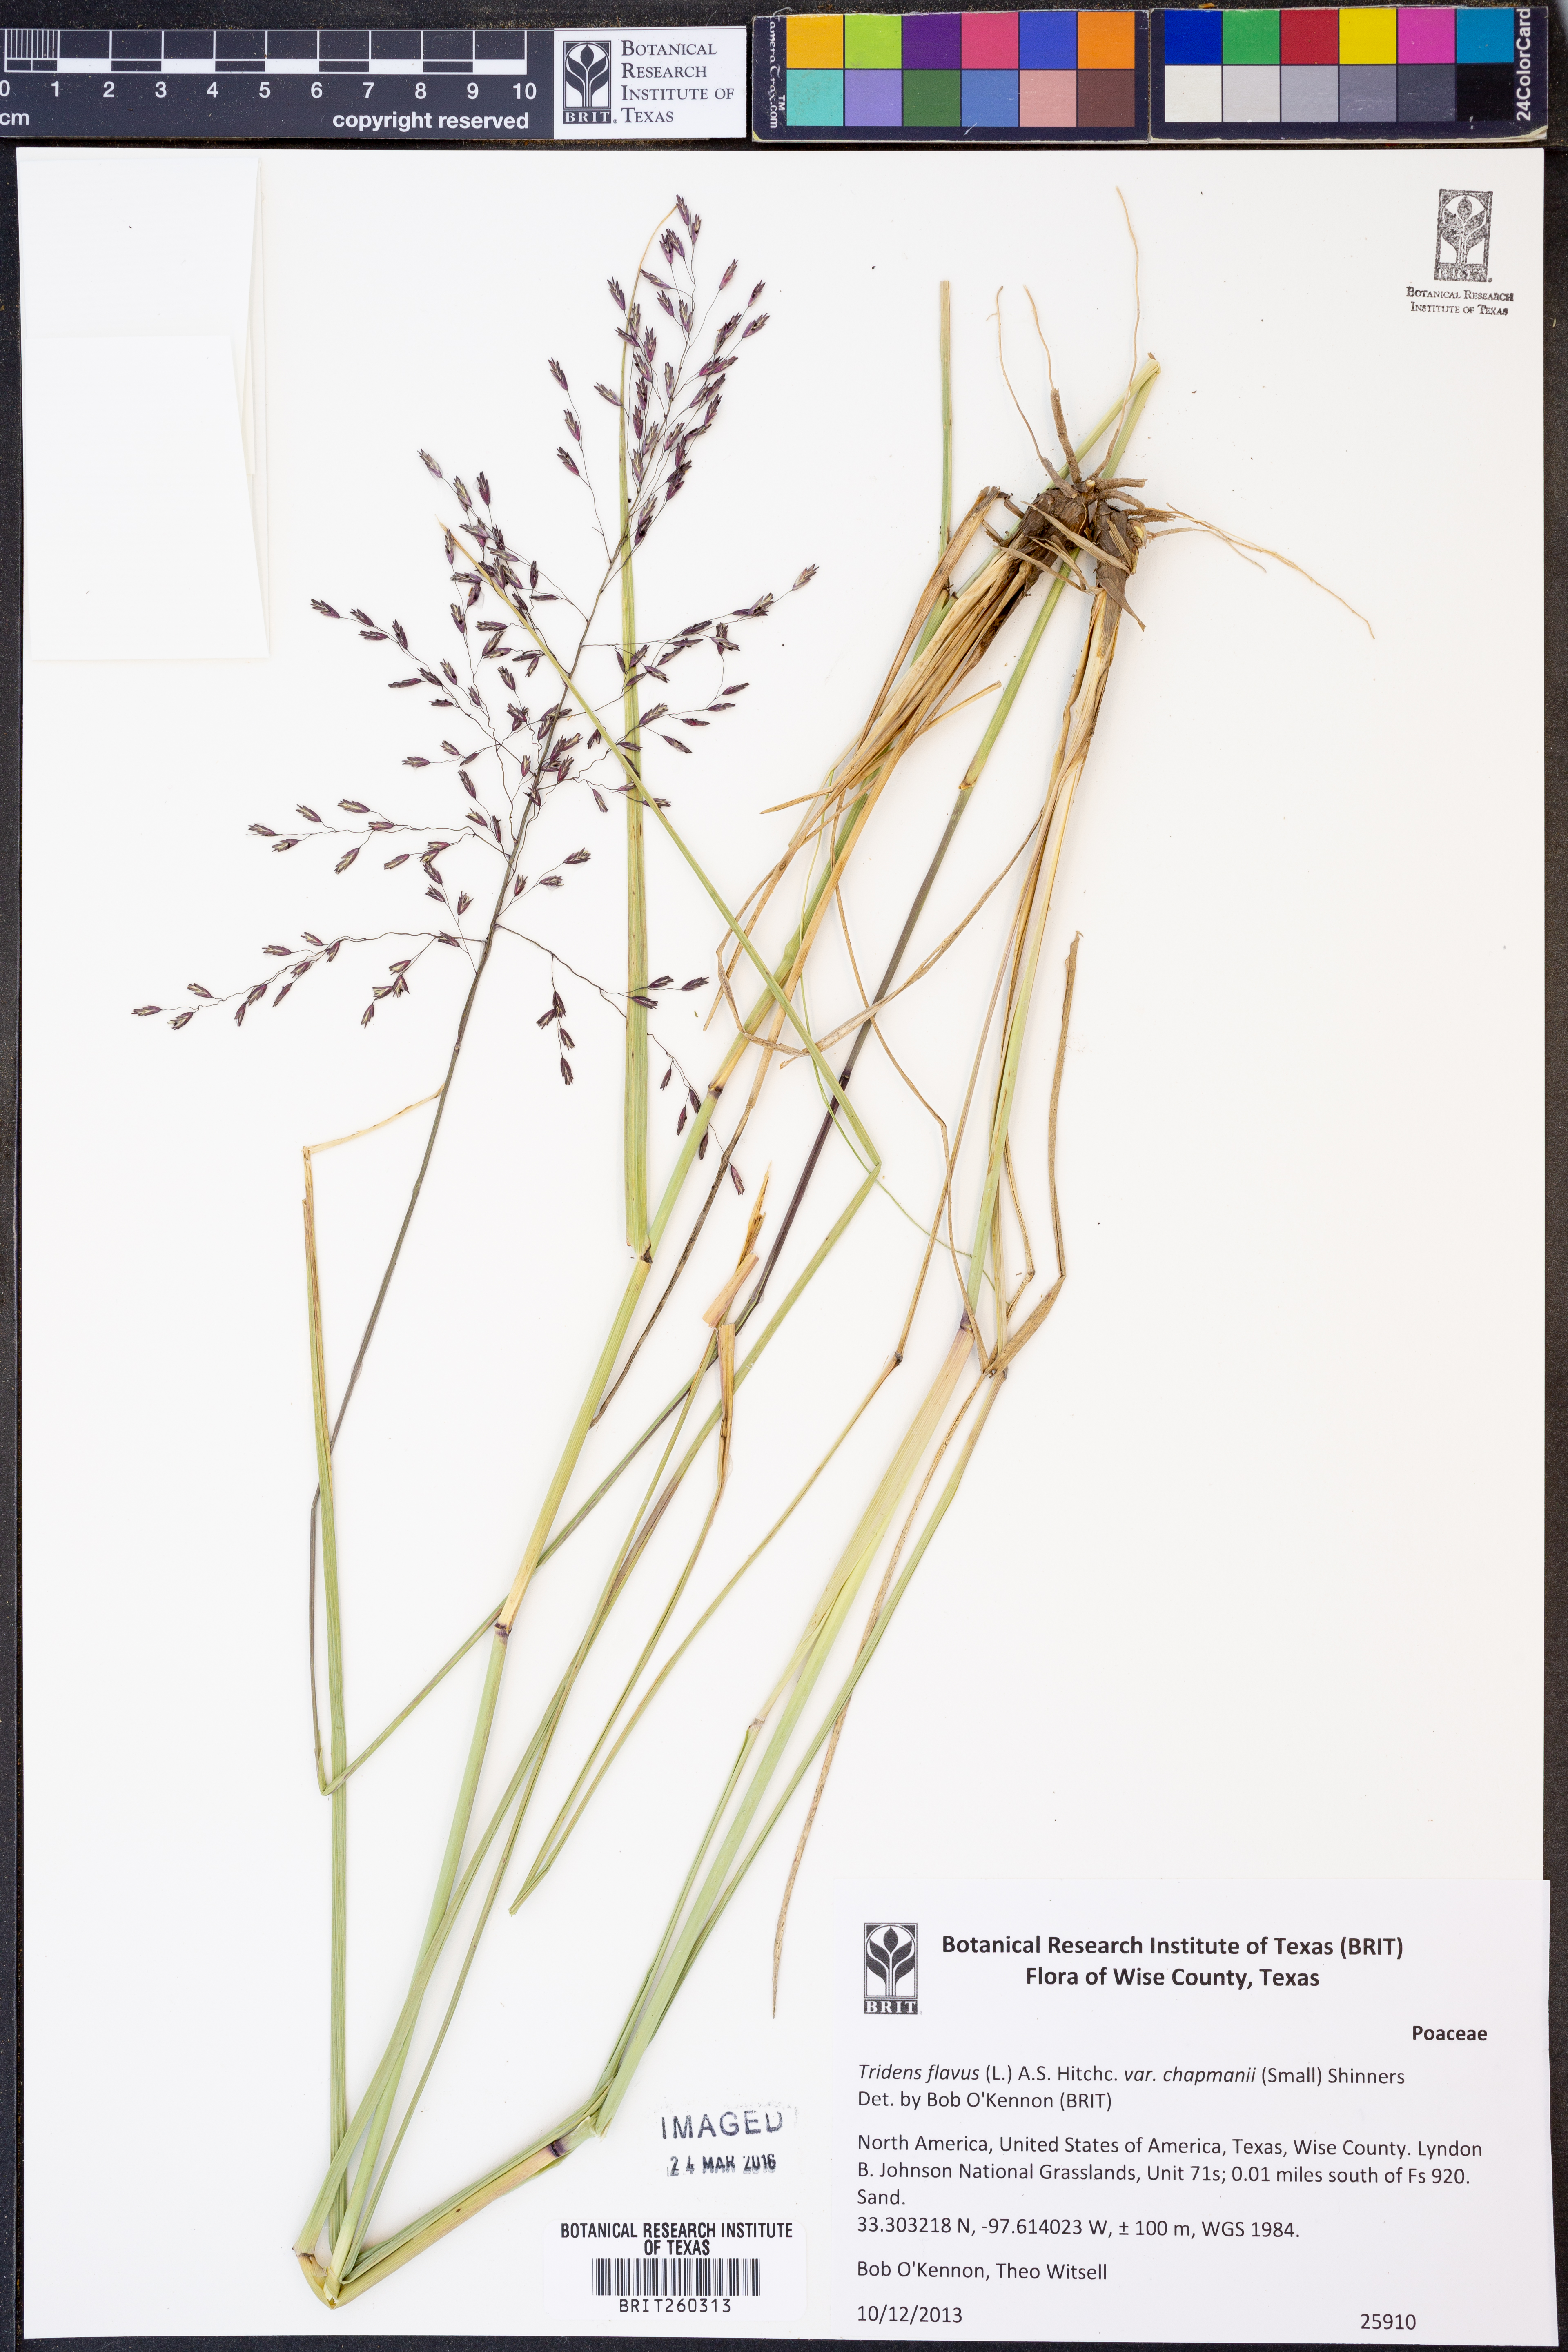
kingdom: Plantae
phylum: Tracheophyta
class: Liliopsida
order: Poales
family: Poaceae
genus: Tridens
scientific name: Tridens chapmanii
